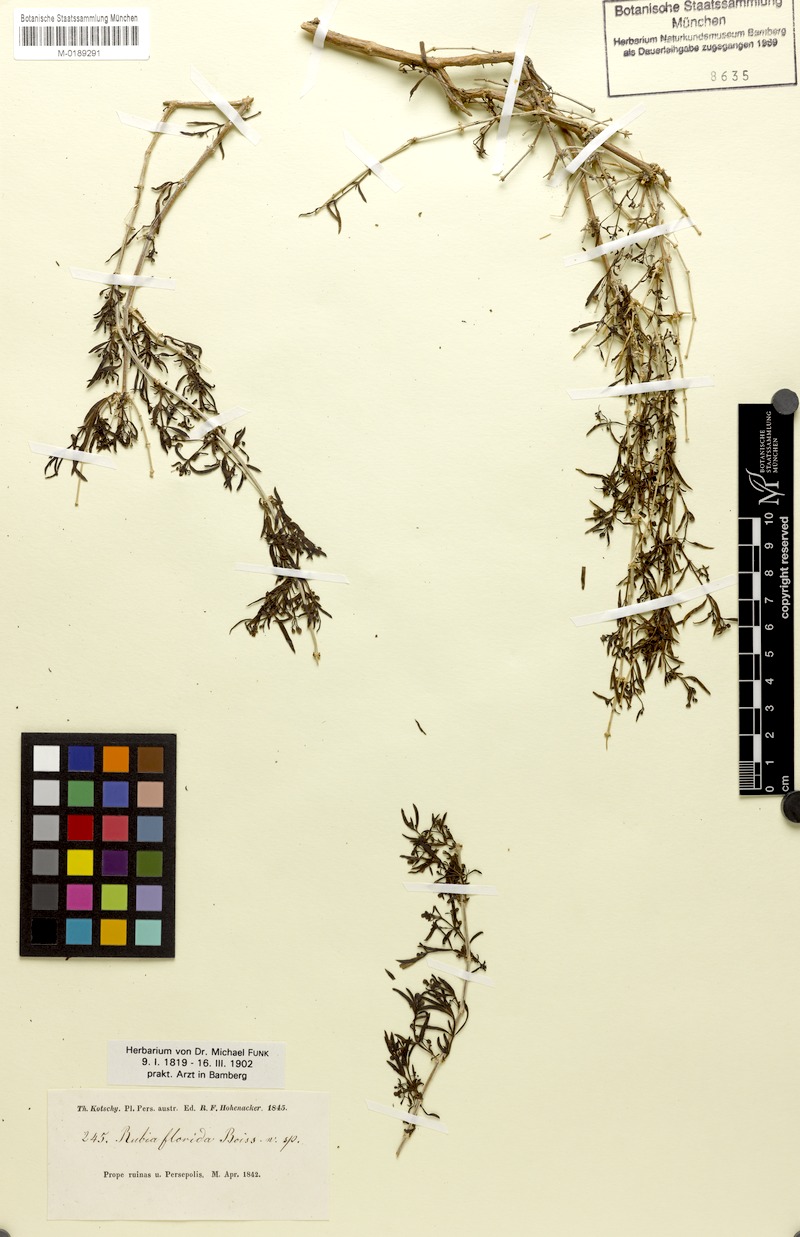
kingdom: Plantae
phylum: Tracheophyta
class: Magnoliopsida
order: Gentianales
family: Rubiaceae
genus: Rubia
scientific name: Rubia florida
